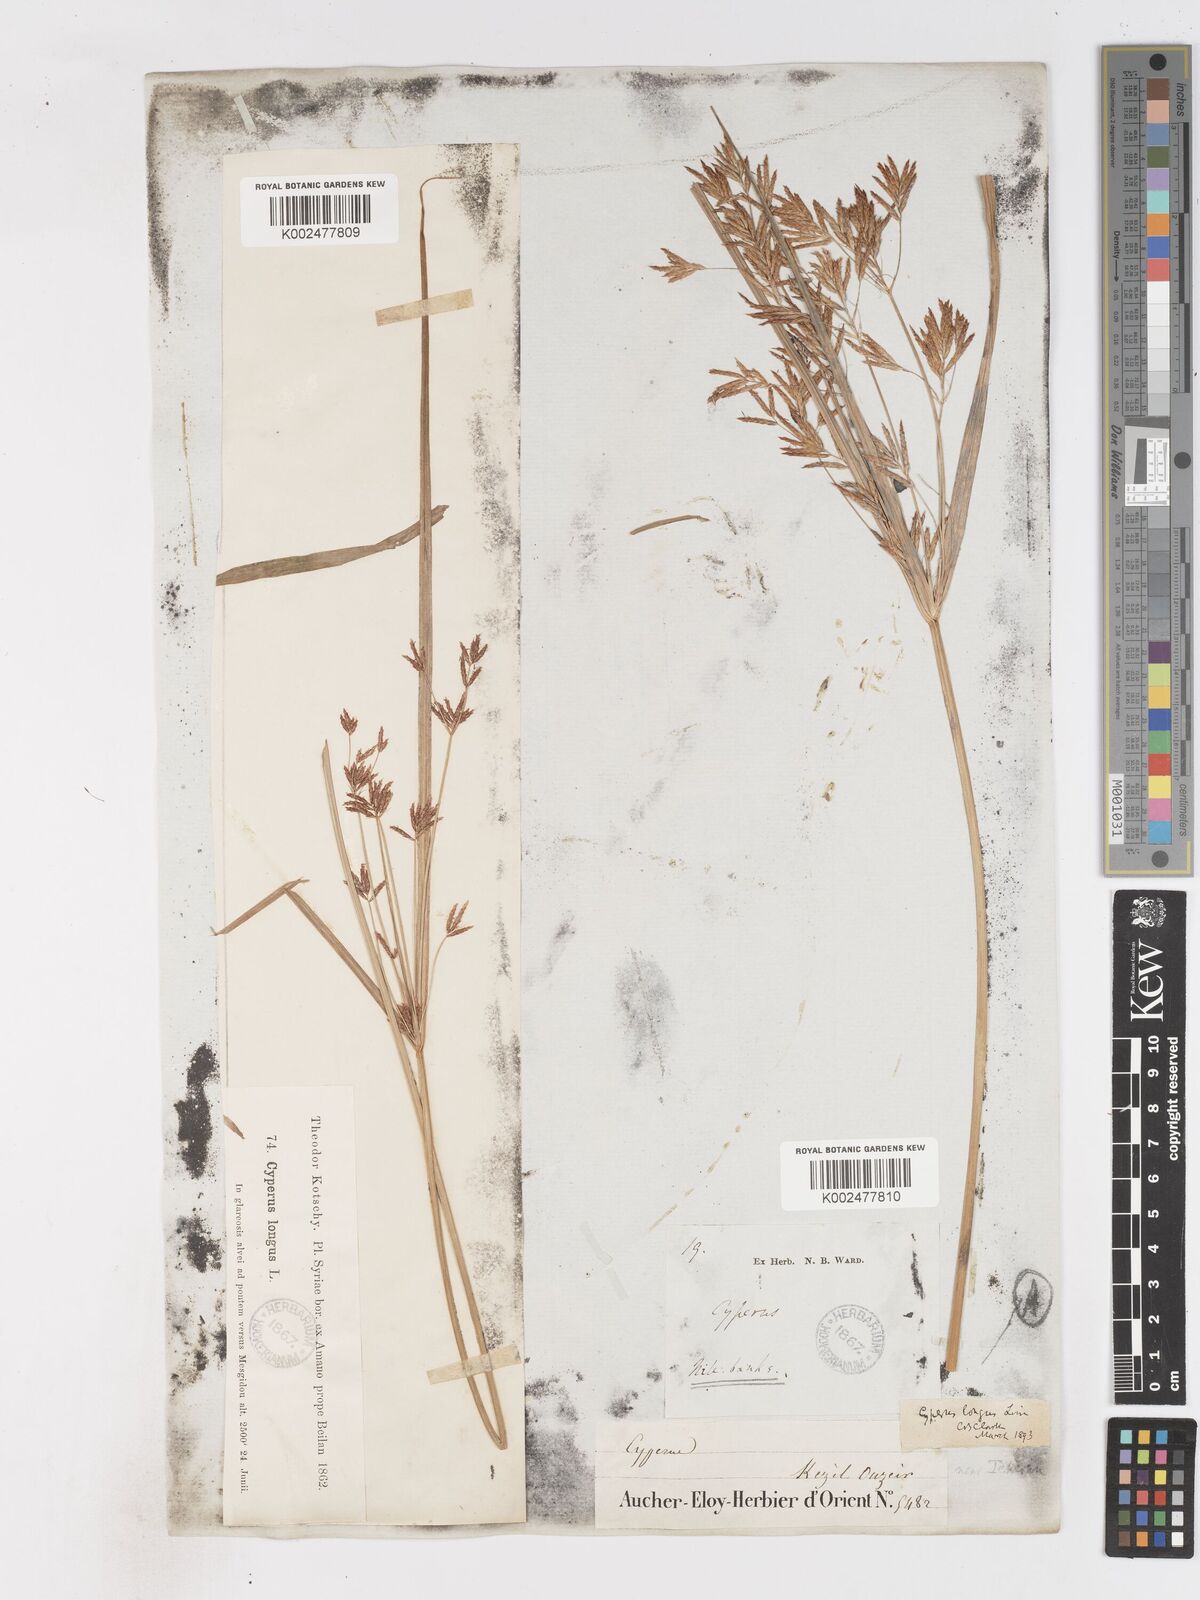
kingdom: Plantae
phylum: Tracheophyta
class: Liliopsida
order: Poales
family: Cyperaceae
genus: Cyperus
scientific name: Cyperus longus
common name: Galingale
